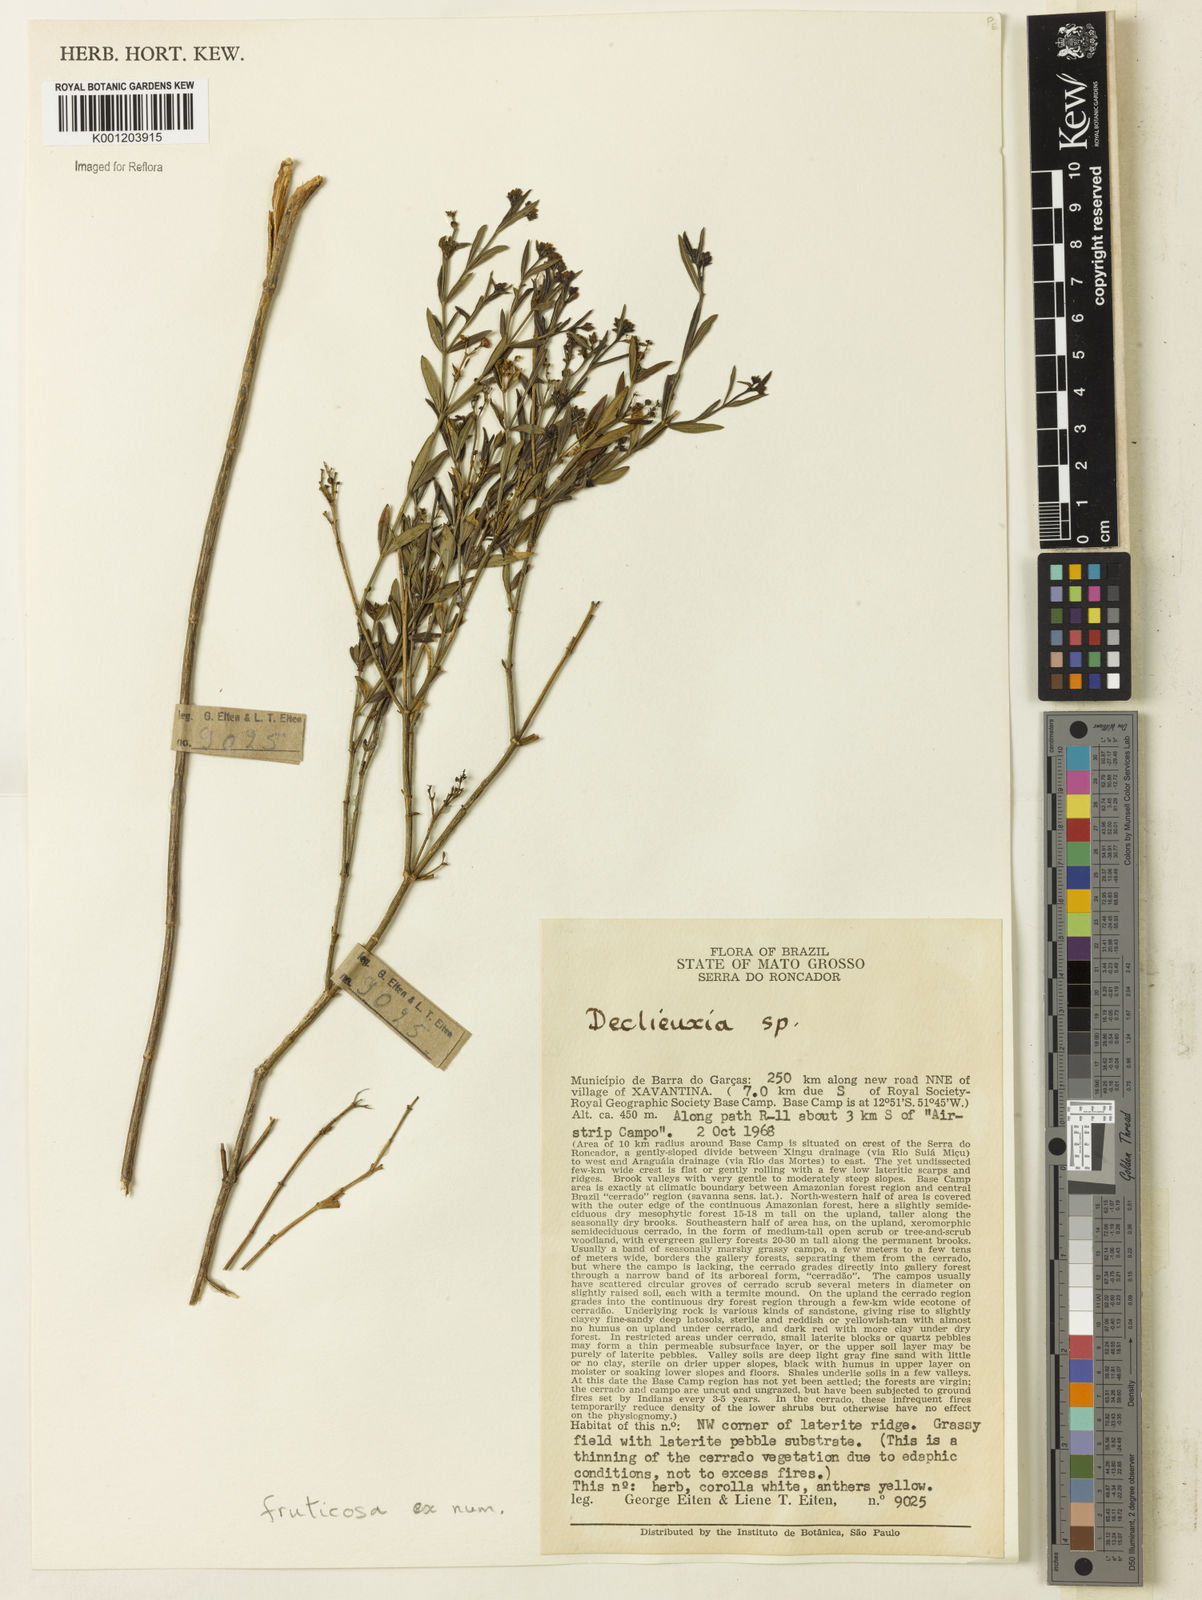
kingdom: Plantae
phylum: Tracheophyta
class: Magnoliopsida
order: Gentianales
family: Rubiaceae
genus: Declieuxia
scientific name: Declieuxia fruticosa
